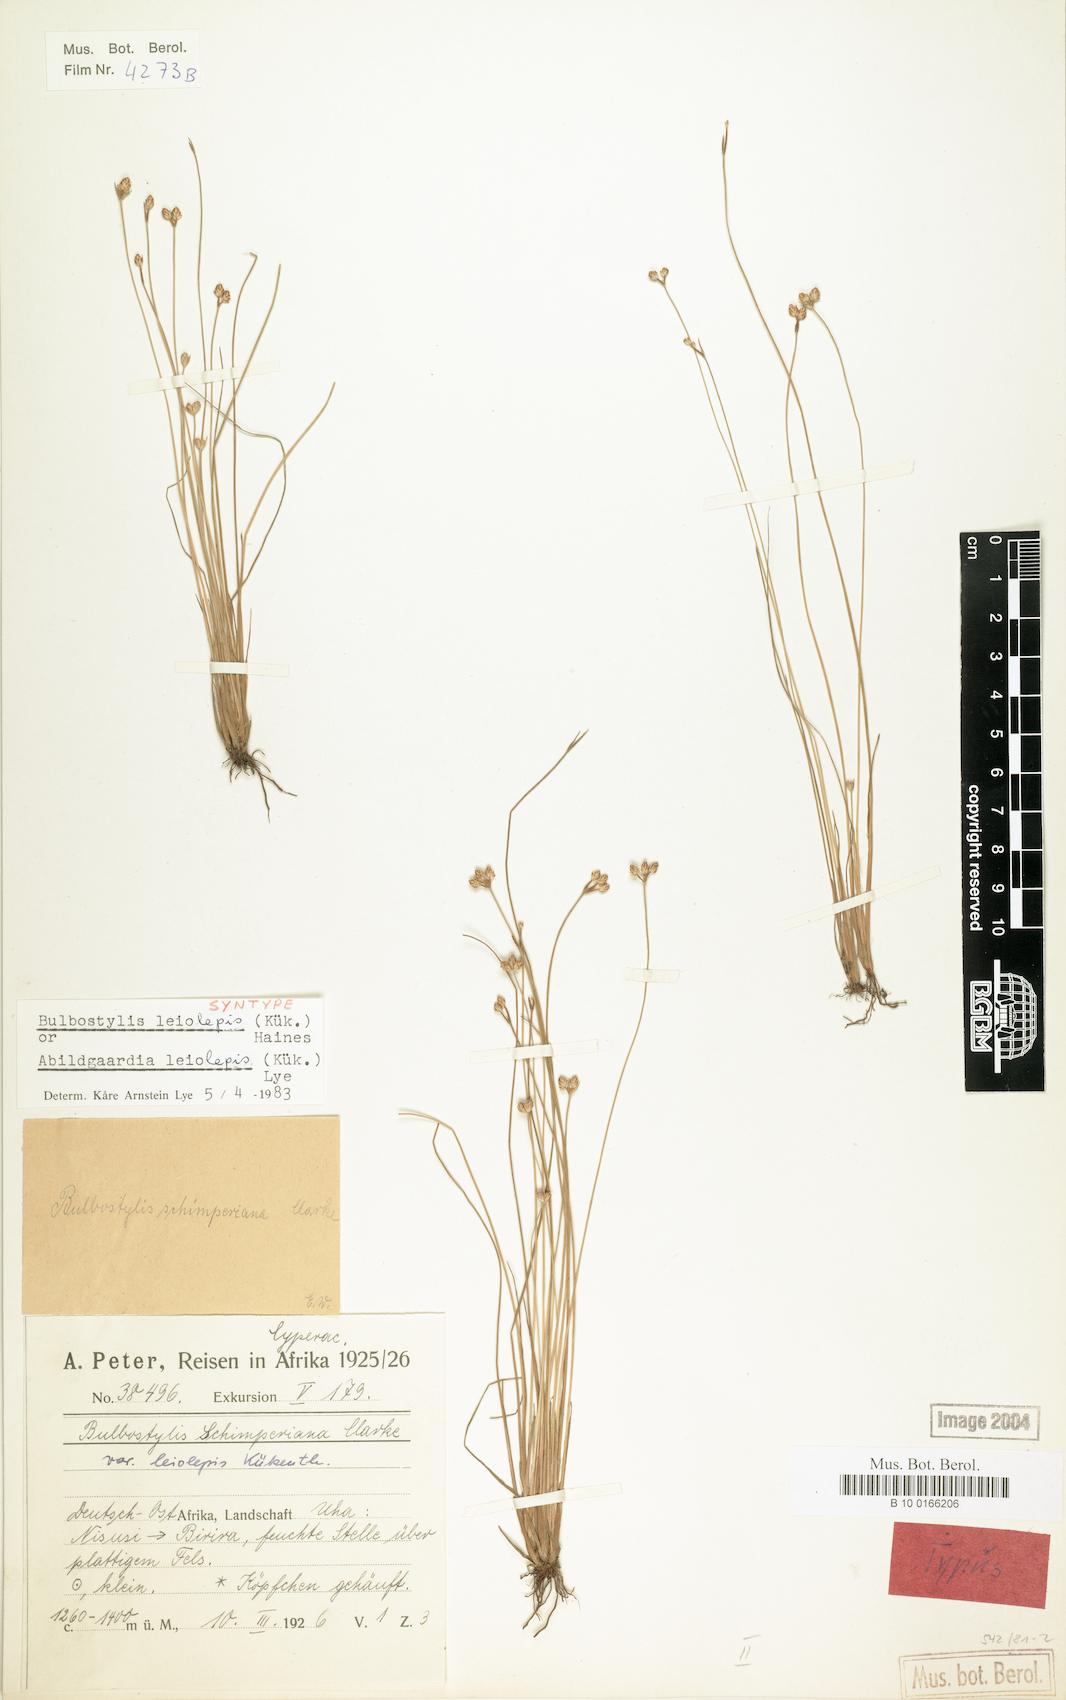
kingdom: Plantae
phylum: Tracheophyta
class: Liliopsida
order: Poales
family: Cyperaceae
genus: Bulbostylis
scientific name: Bulbostylis leiolepis
